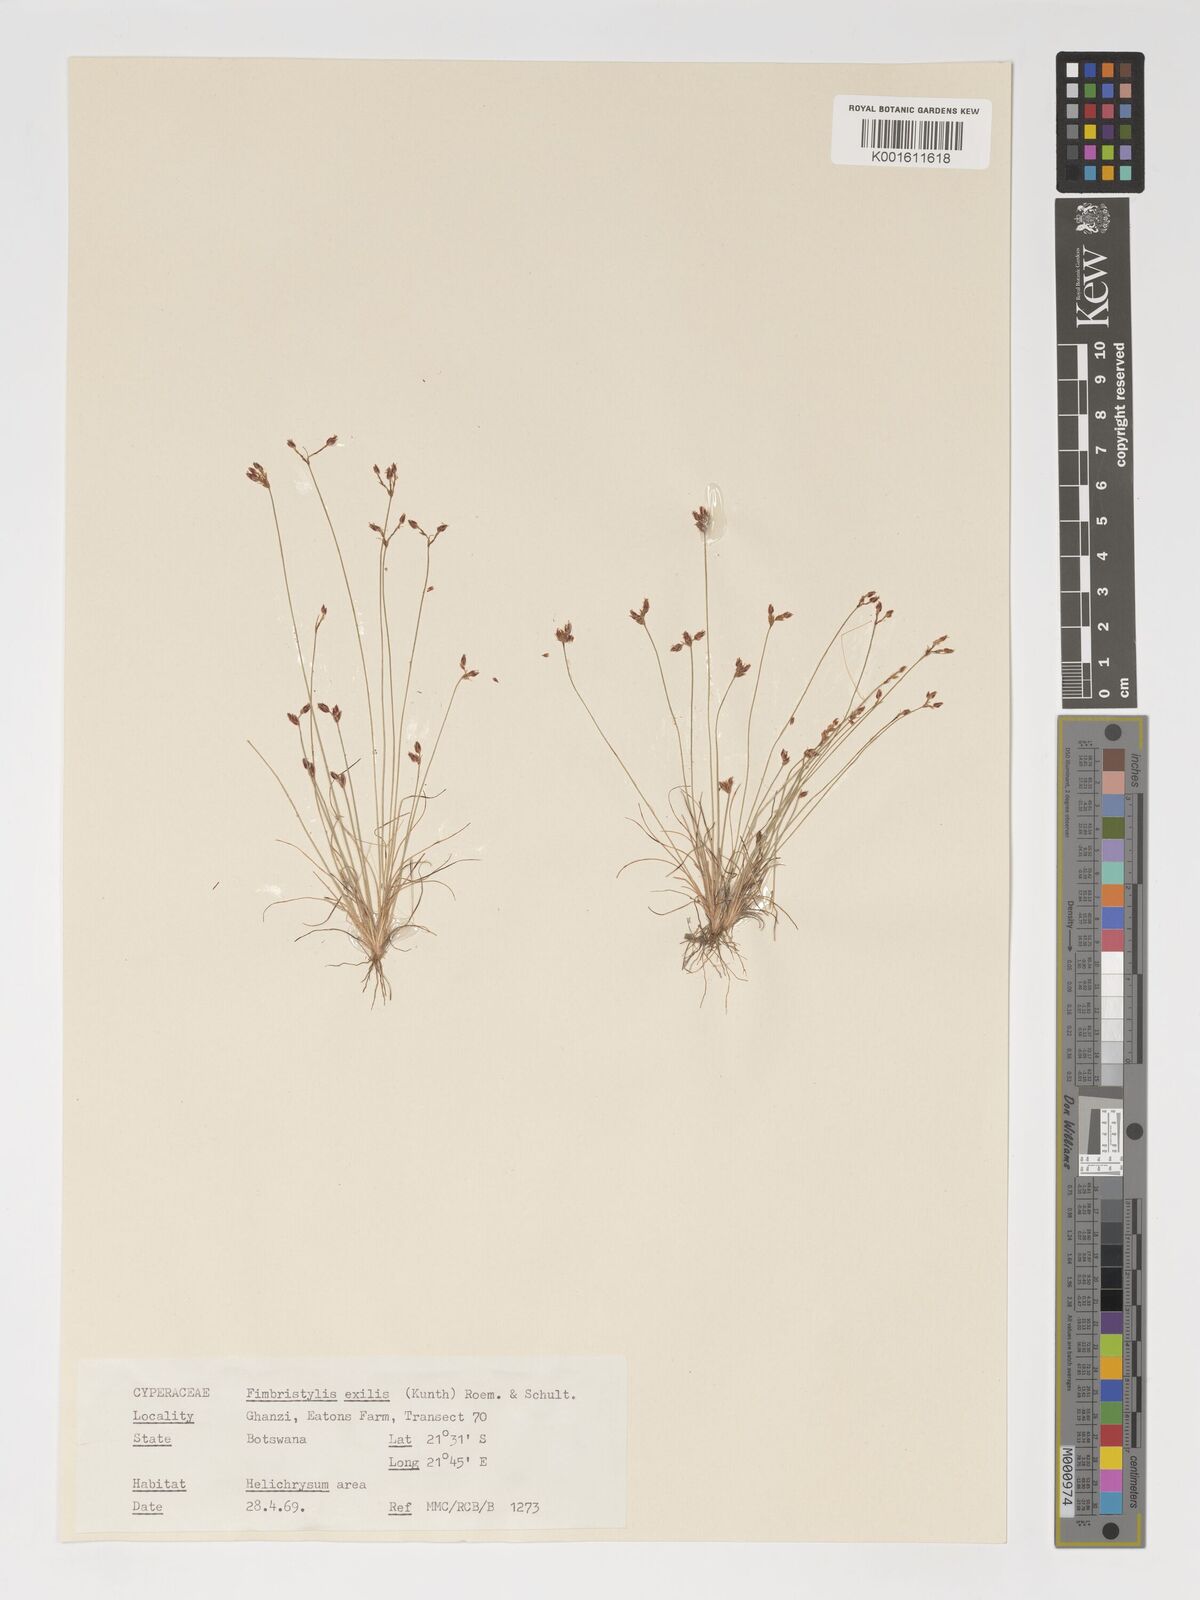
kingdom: Plantae
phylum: Tracheophyta
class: Liliopsida
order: Poales
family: Cyperaceae
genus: Bulbostylis
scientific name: Bulbostylis hispidula
